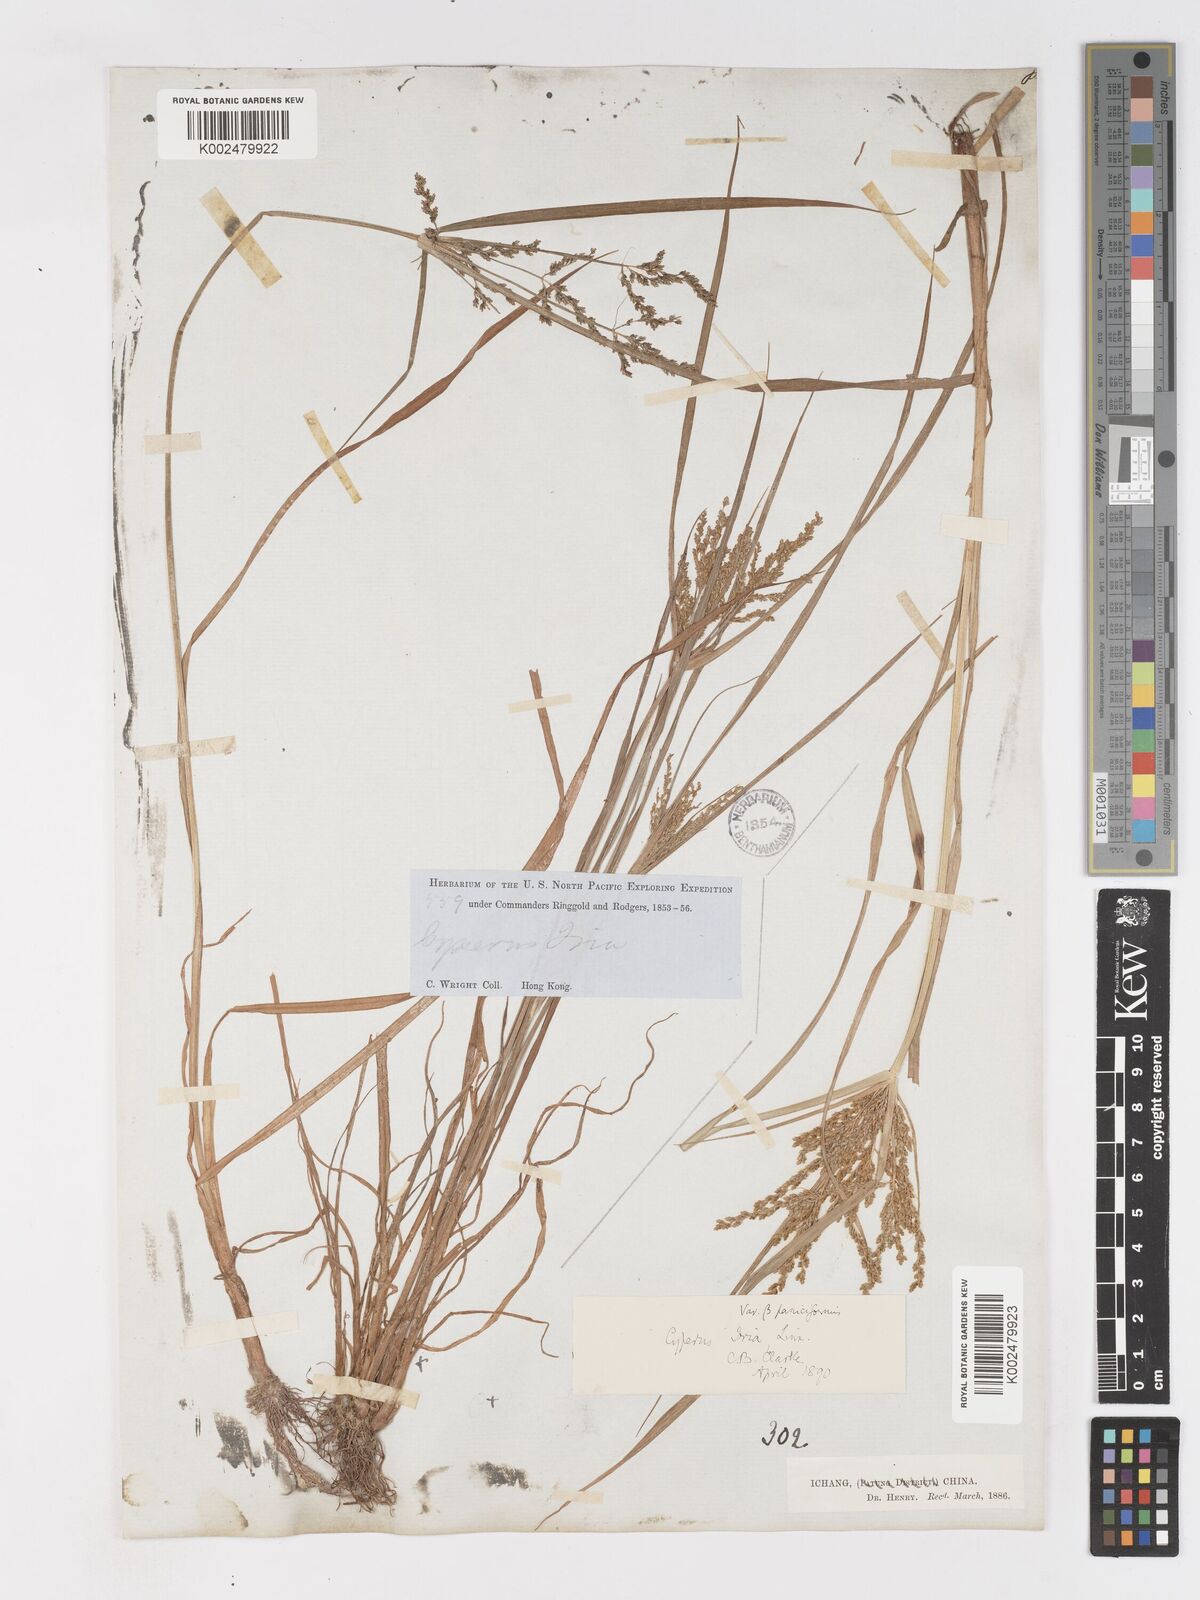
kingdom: Plantae
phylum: Tracheophyta
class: Liliopsida
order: Poales
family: Cyperaceae
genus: Cyperus
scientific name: Cyperus iria
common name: Ricefield flatsedge
